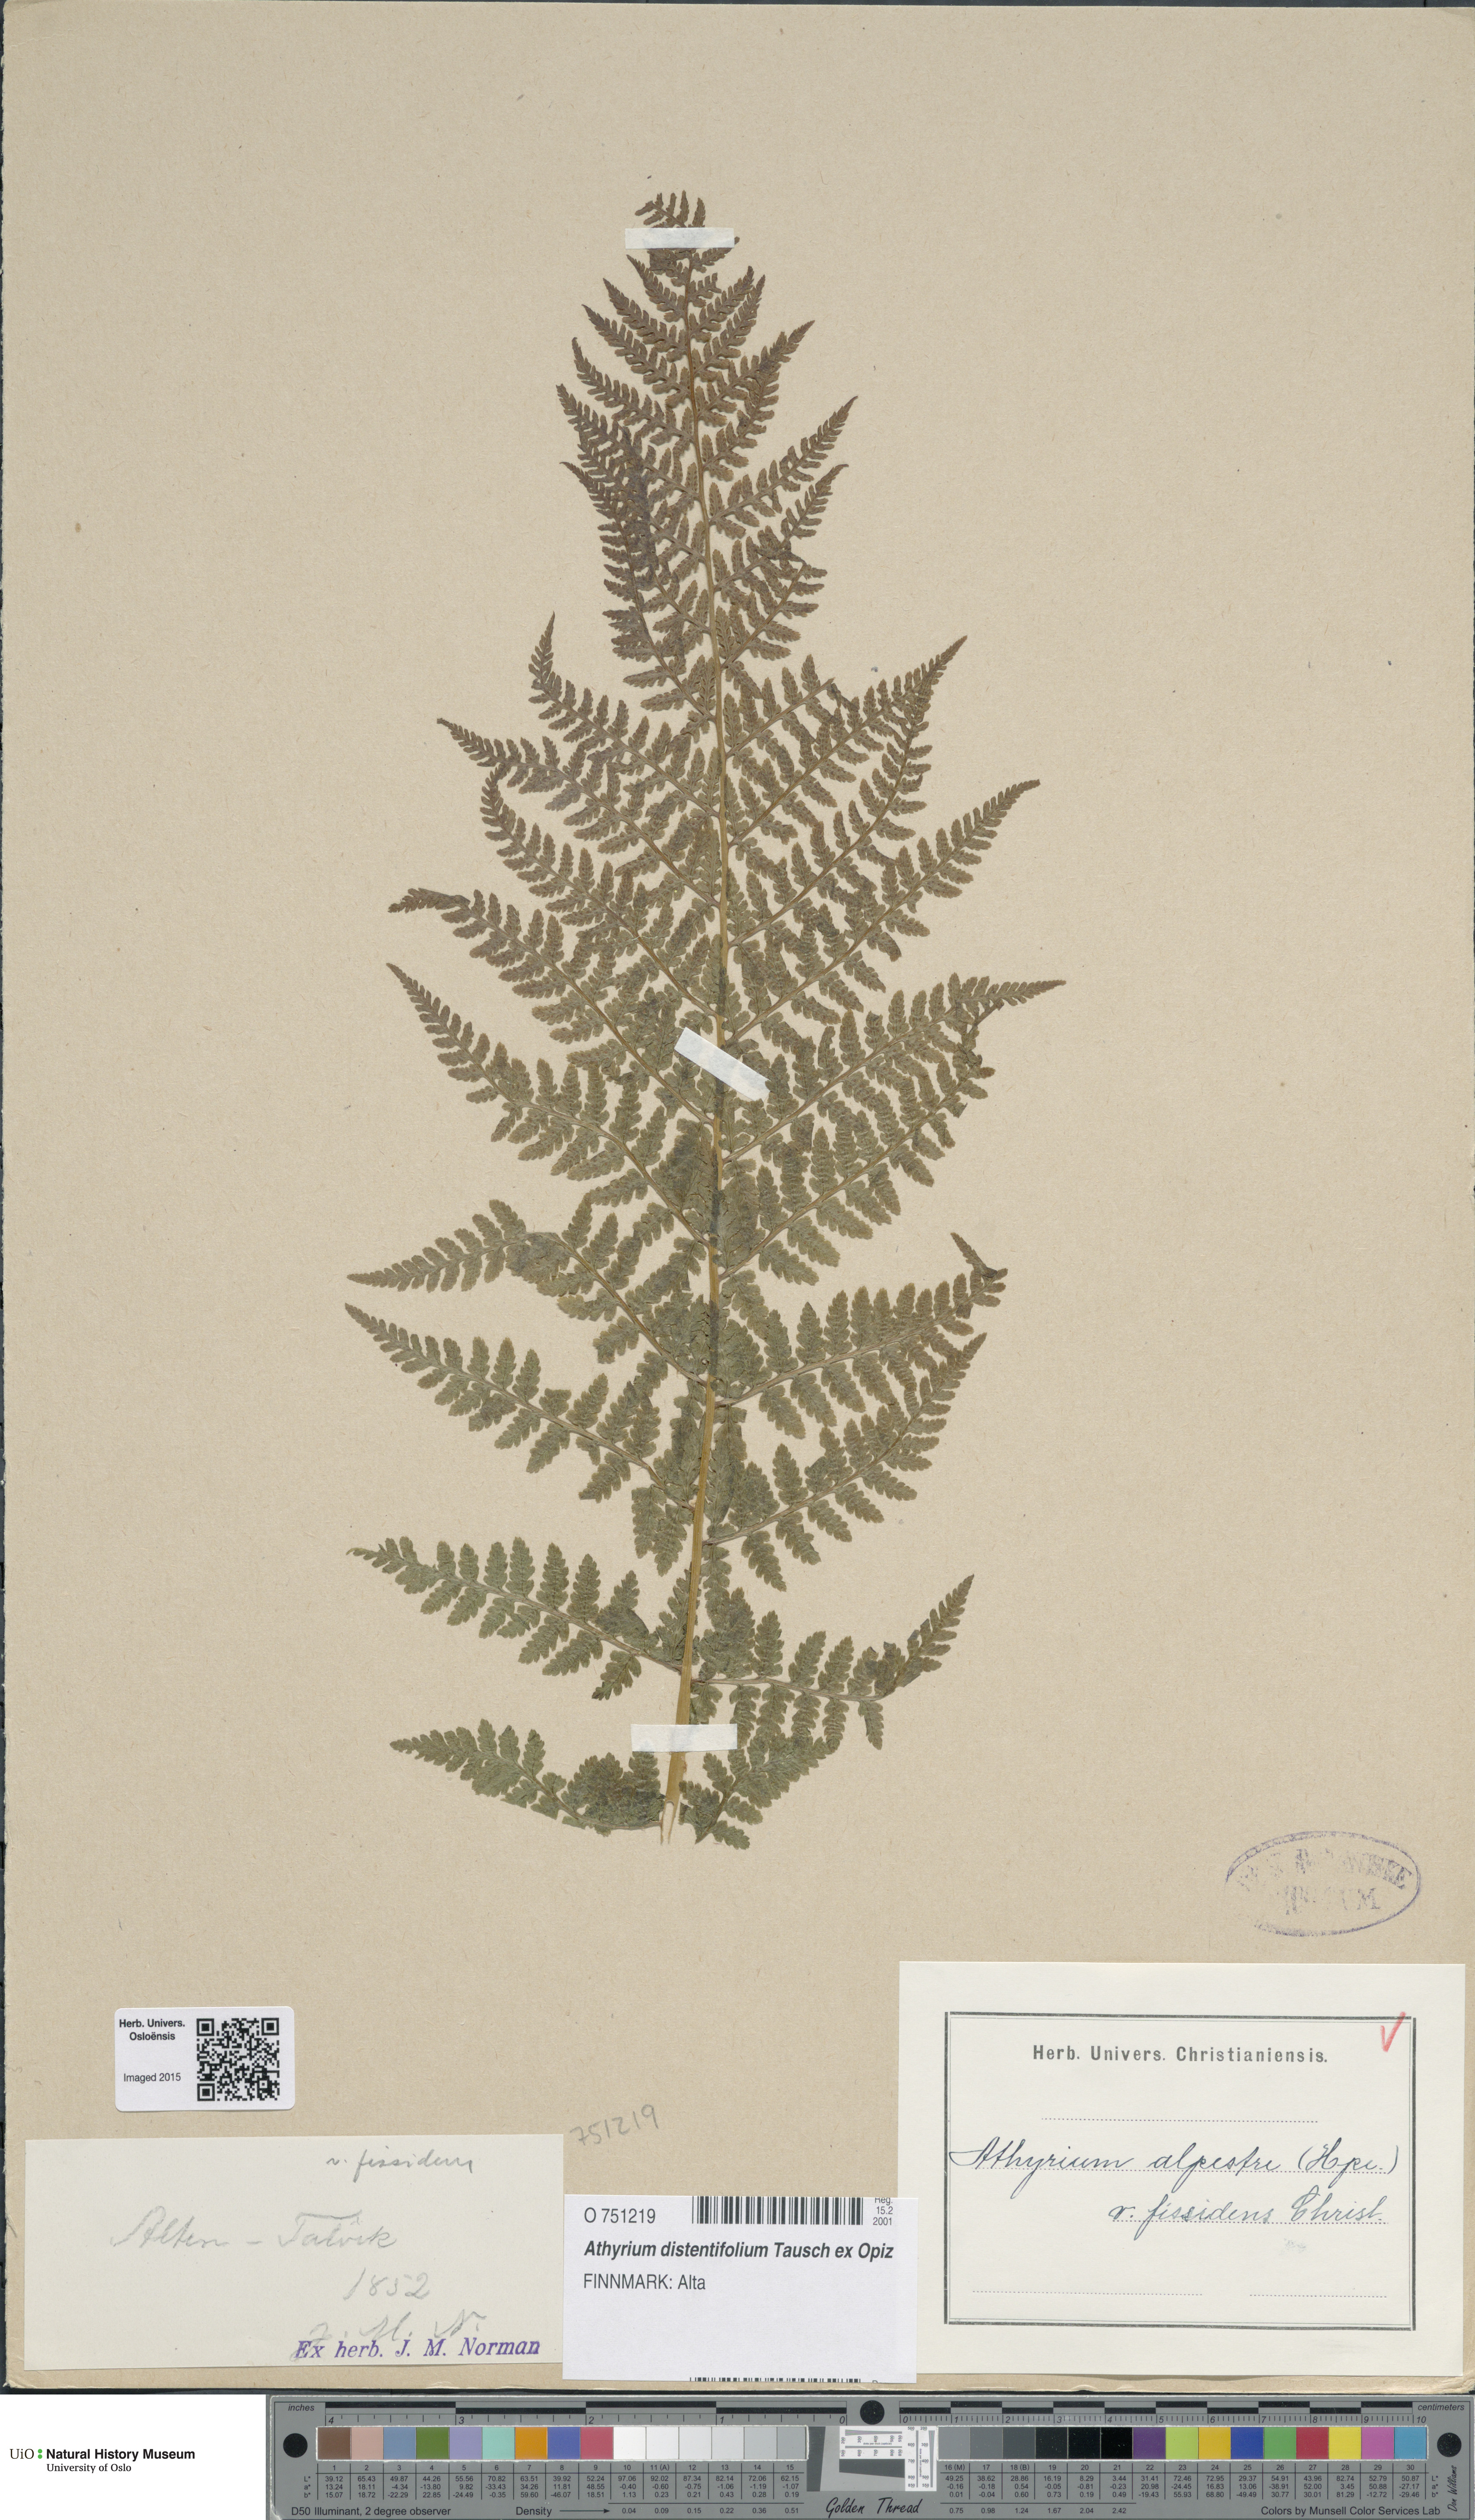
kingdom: Plantae
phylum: Tracheophyta
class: Polypodiopsida
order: Polypodiales
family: Athyriaceae
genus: Pseudathyrium
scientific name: Pseudathyrium alpestre
